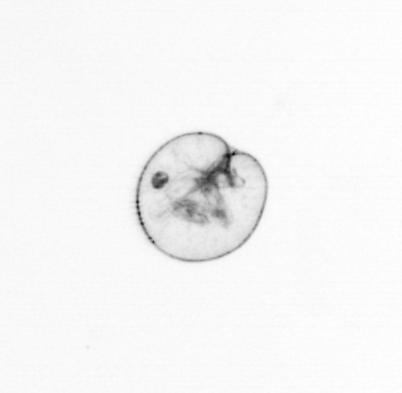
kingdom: Chromista
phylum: Myzozoa
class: Dinophyceae
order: Noctilucales
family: Noctilucaceae
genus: Noctiluca
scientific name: Noctiluca scintillans
